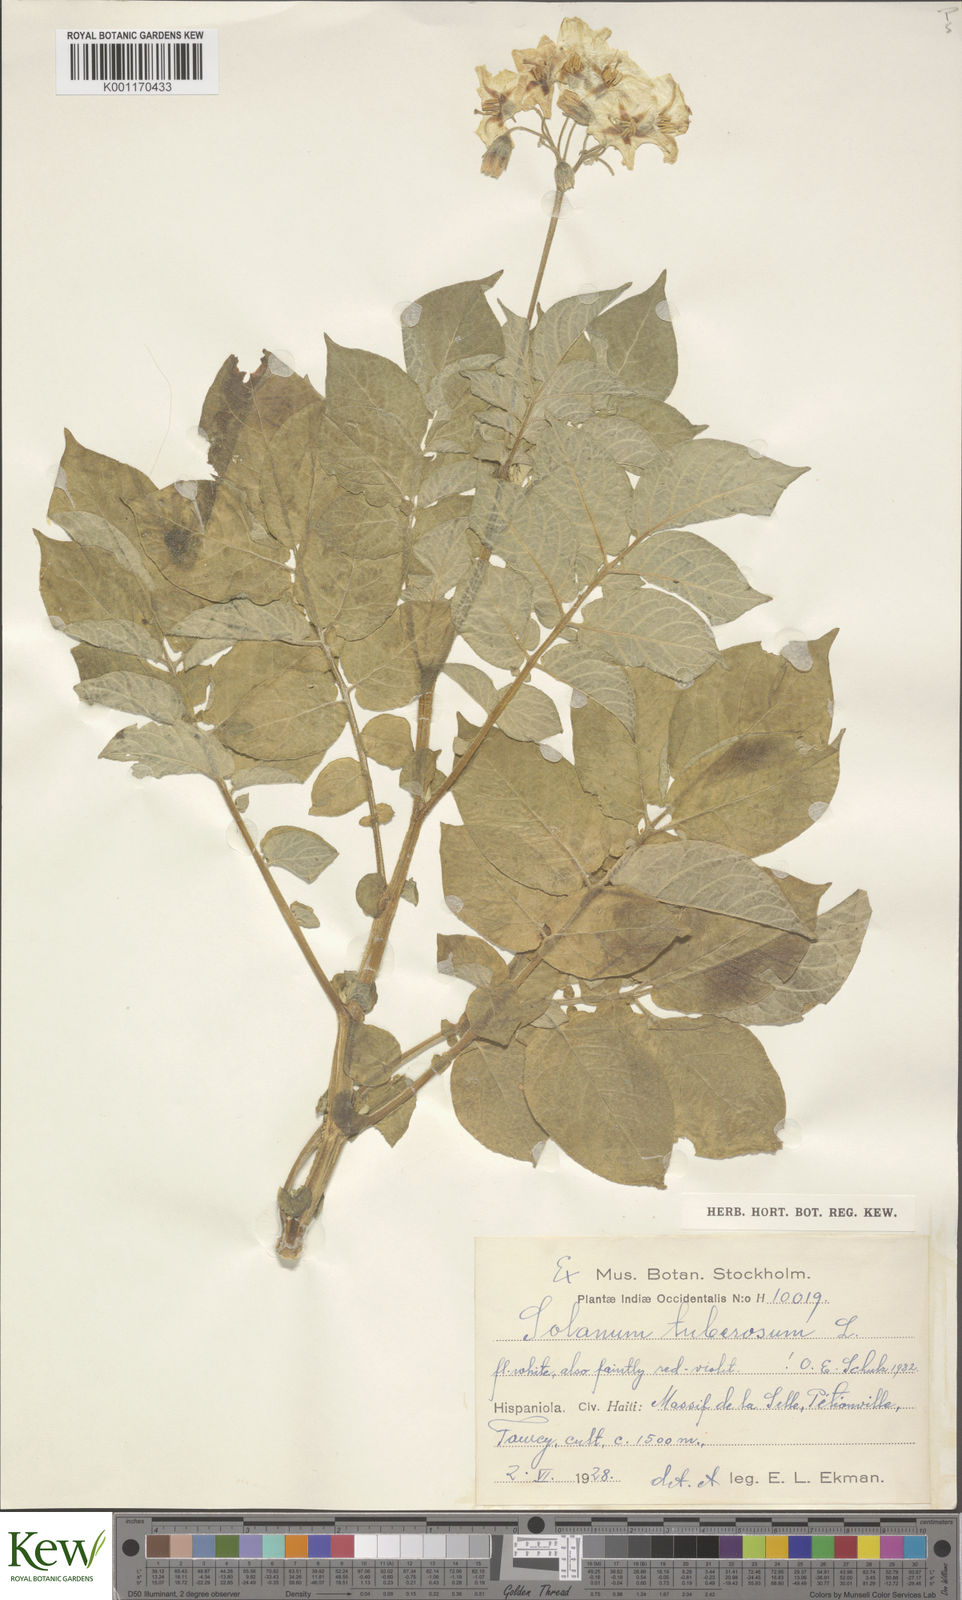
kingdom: Plantae
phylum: Tracheophyta
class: Magnoliopsida
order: Solanales
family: Solanaceae
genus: Solanum
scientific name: Solanum tuberosum
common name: Potato
